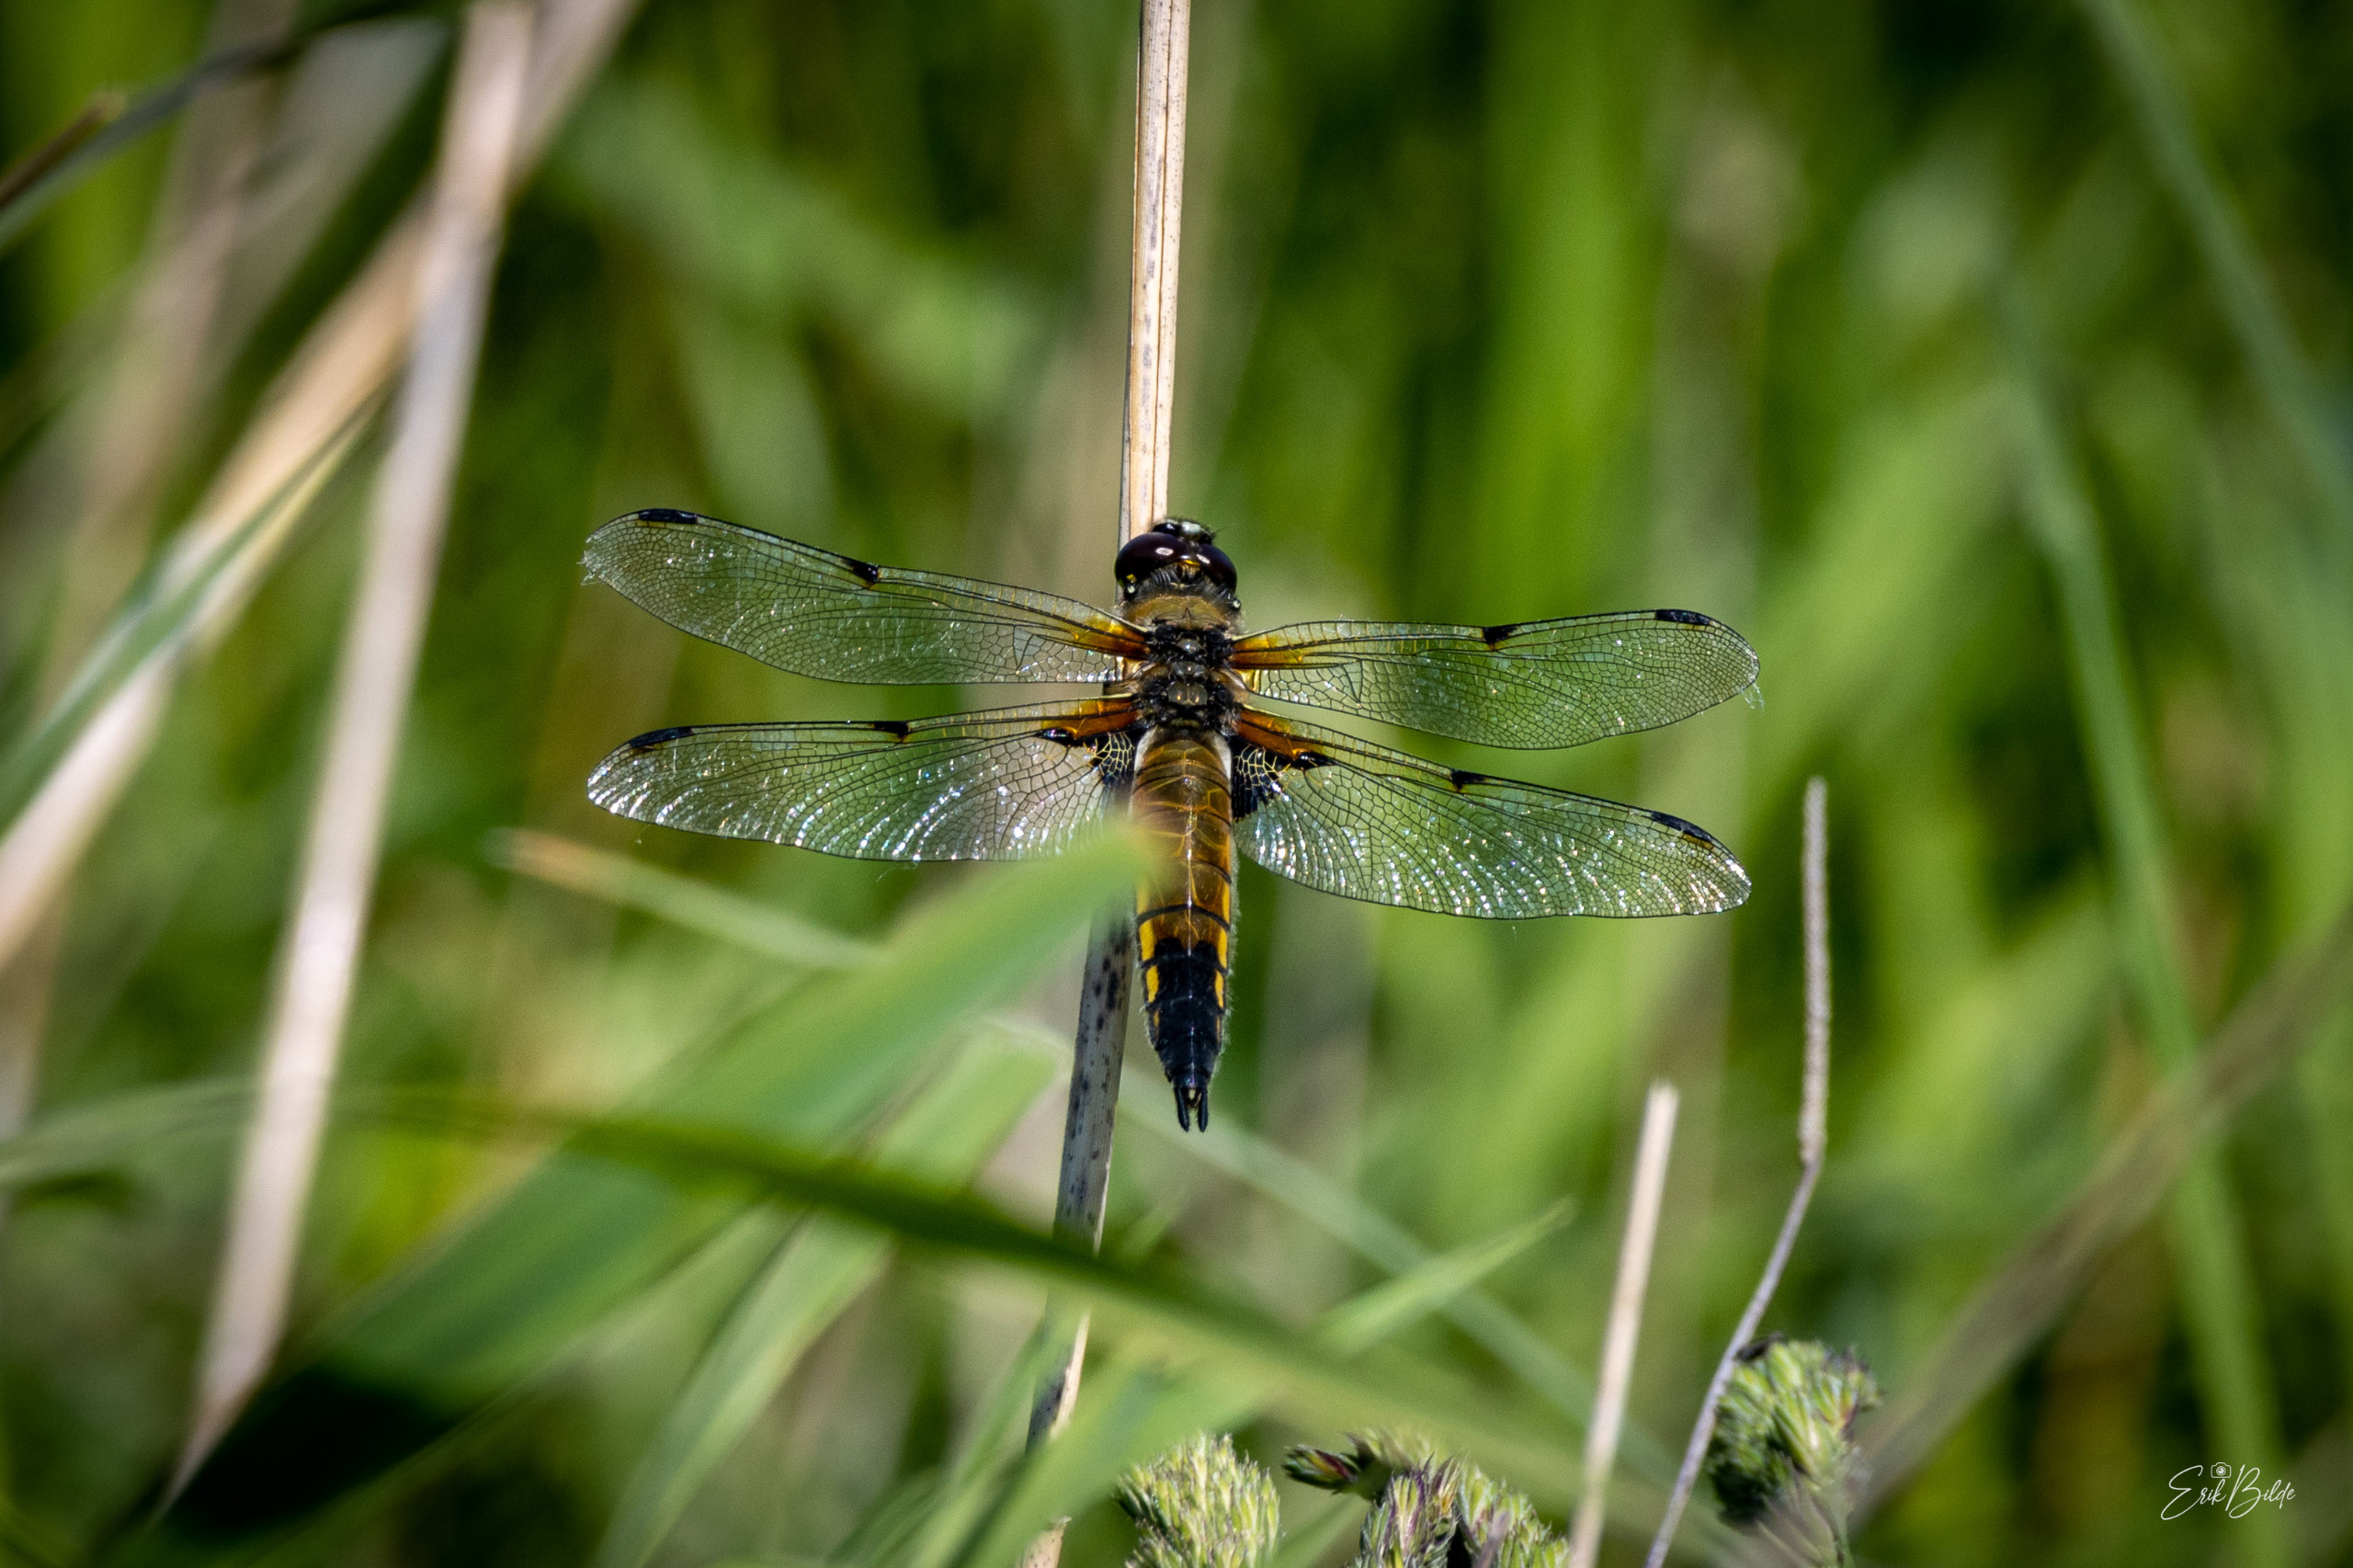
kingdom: Animalia
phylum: Arthropoda
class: Insecta
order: Odonata
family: Libellulidae
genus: Libellula
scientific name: Libellula quadrimaculata
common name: Fireplettet libel
